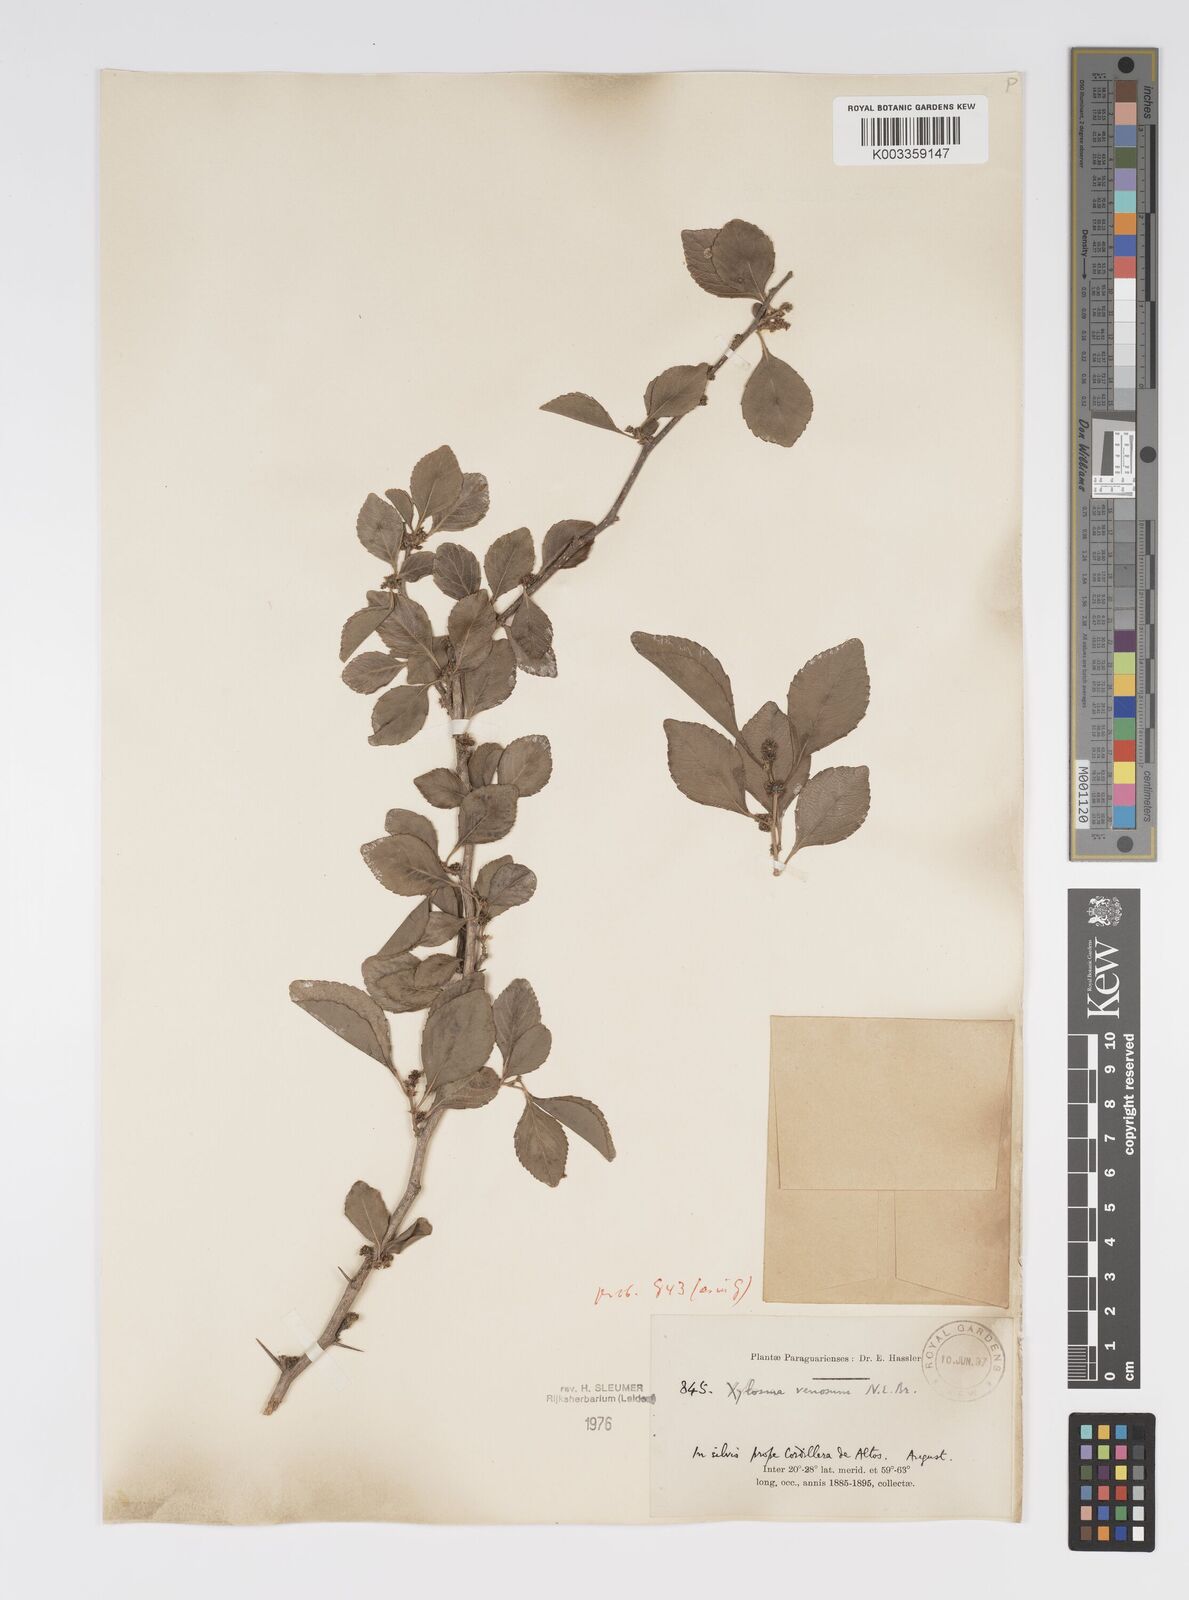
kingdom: Plantae
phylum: Tracheophyta
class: Magnoliopsida
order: Malpighiales
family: Salicaceae
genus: Xylosma
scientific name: Xylosma venosa
